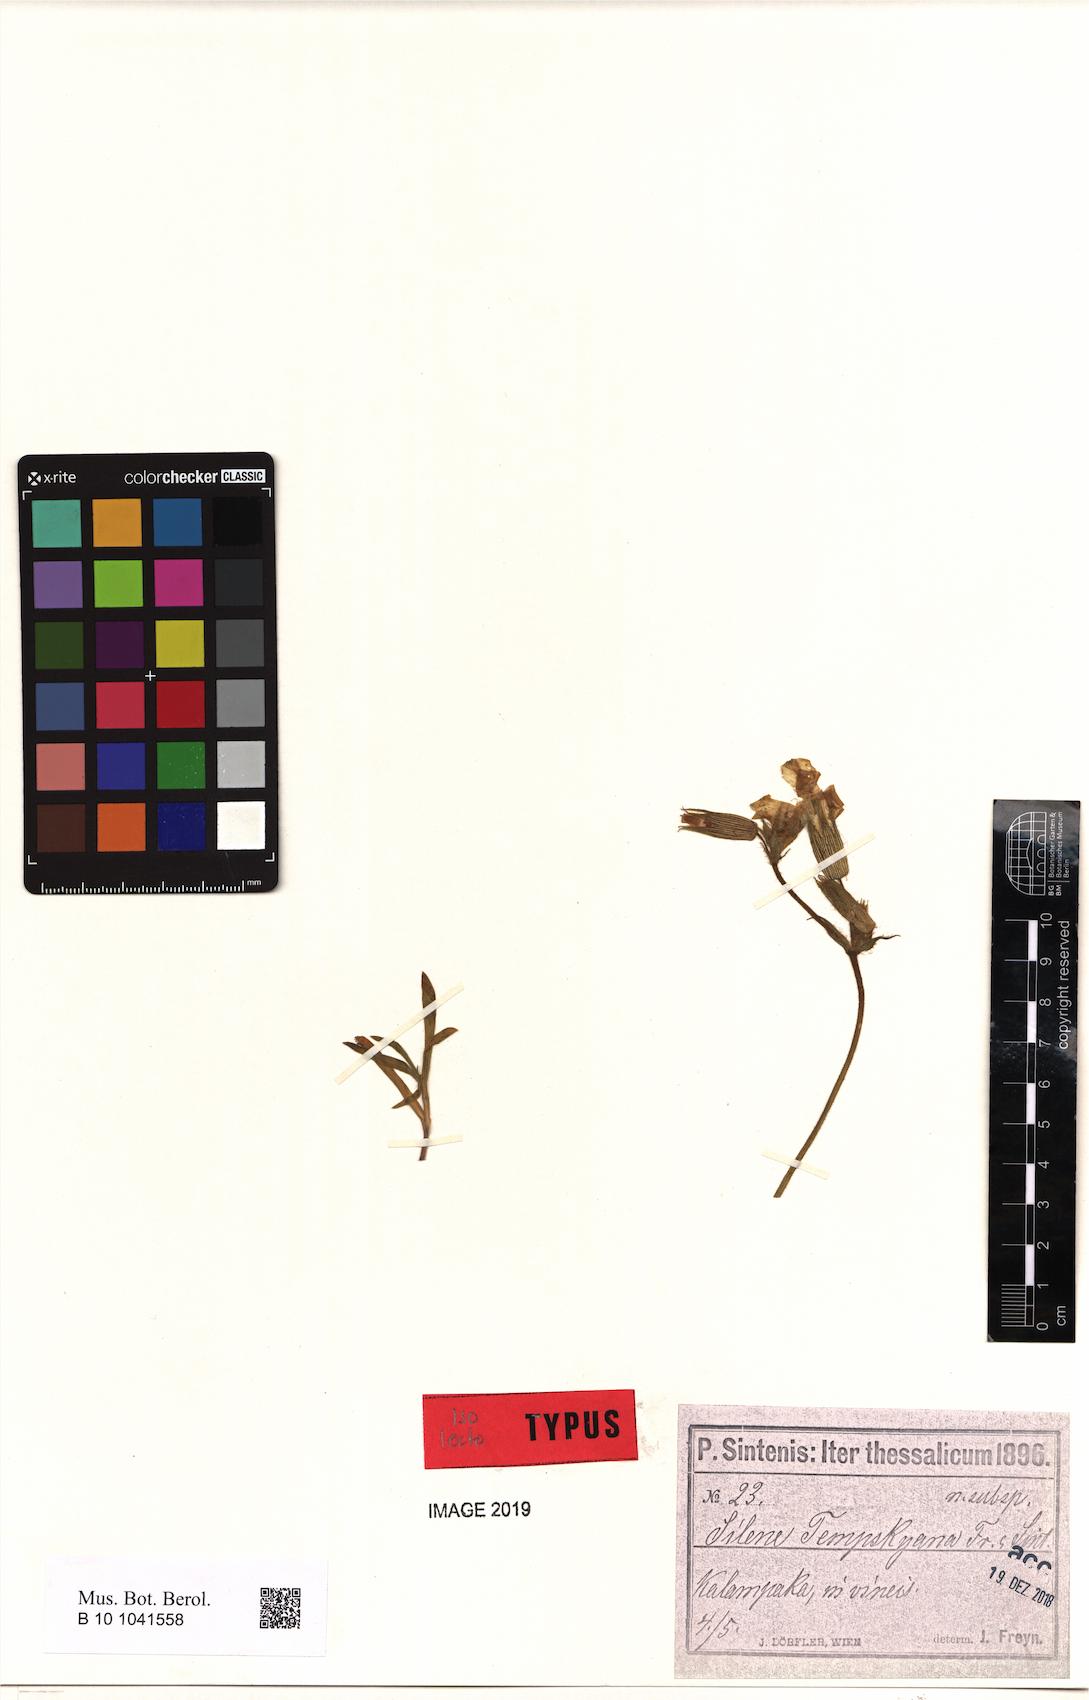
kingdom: Plantae
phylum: Tracheophyta
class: Magnoliopsida
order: Caryophyllales
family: Caryophyllaceae
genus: Silene
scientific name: Silene subconica
